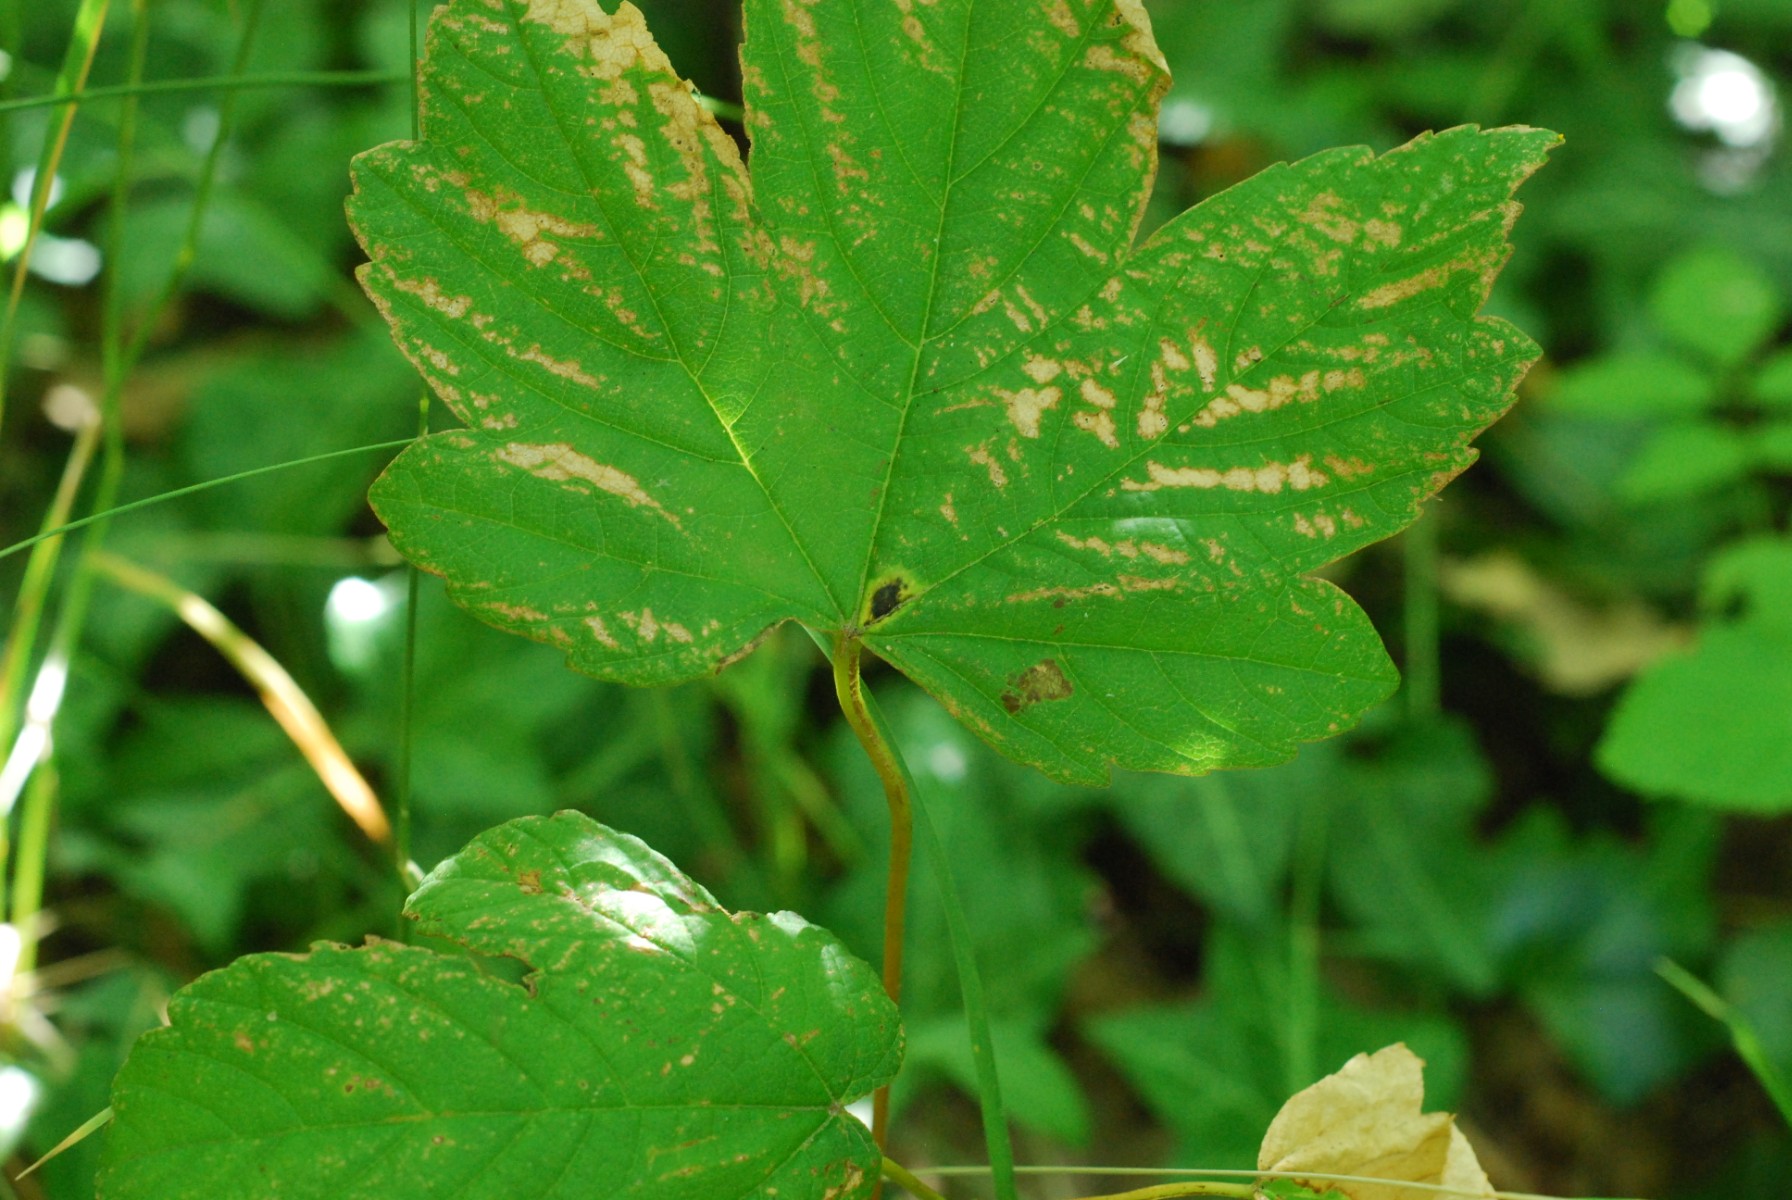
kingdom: Fungi
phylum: Ascomycota
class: Leotiomycetes
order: Rhytismatales
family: Rhytismataceae
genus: Rhytisma
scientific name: Rhytisma acerinum
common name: ahorn-rynkeplet
